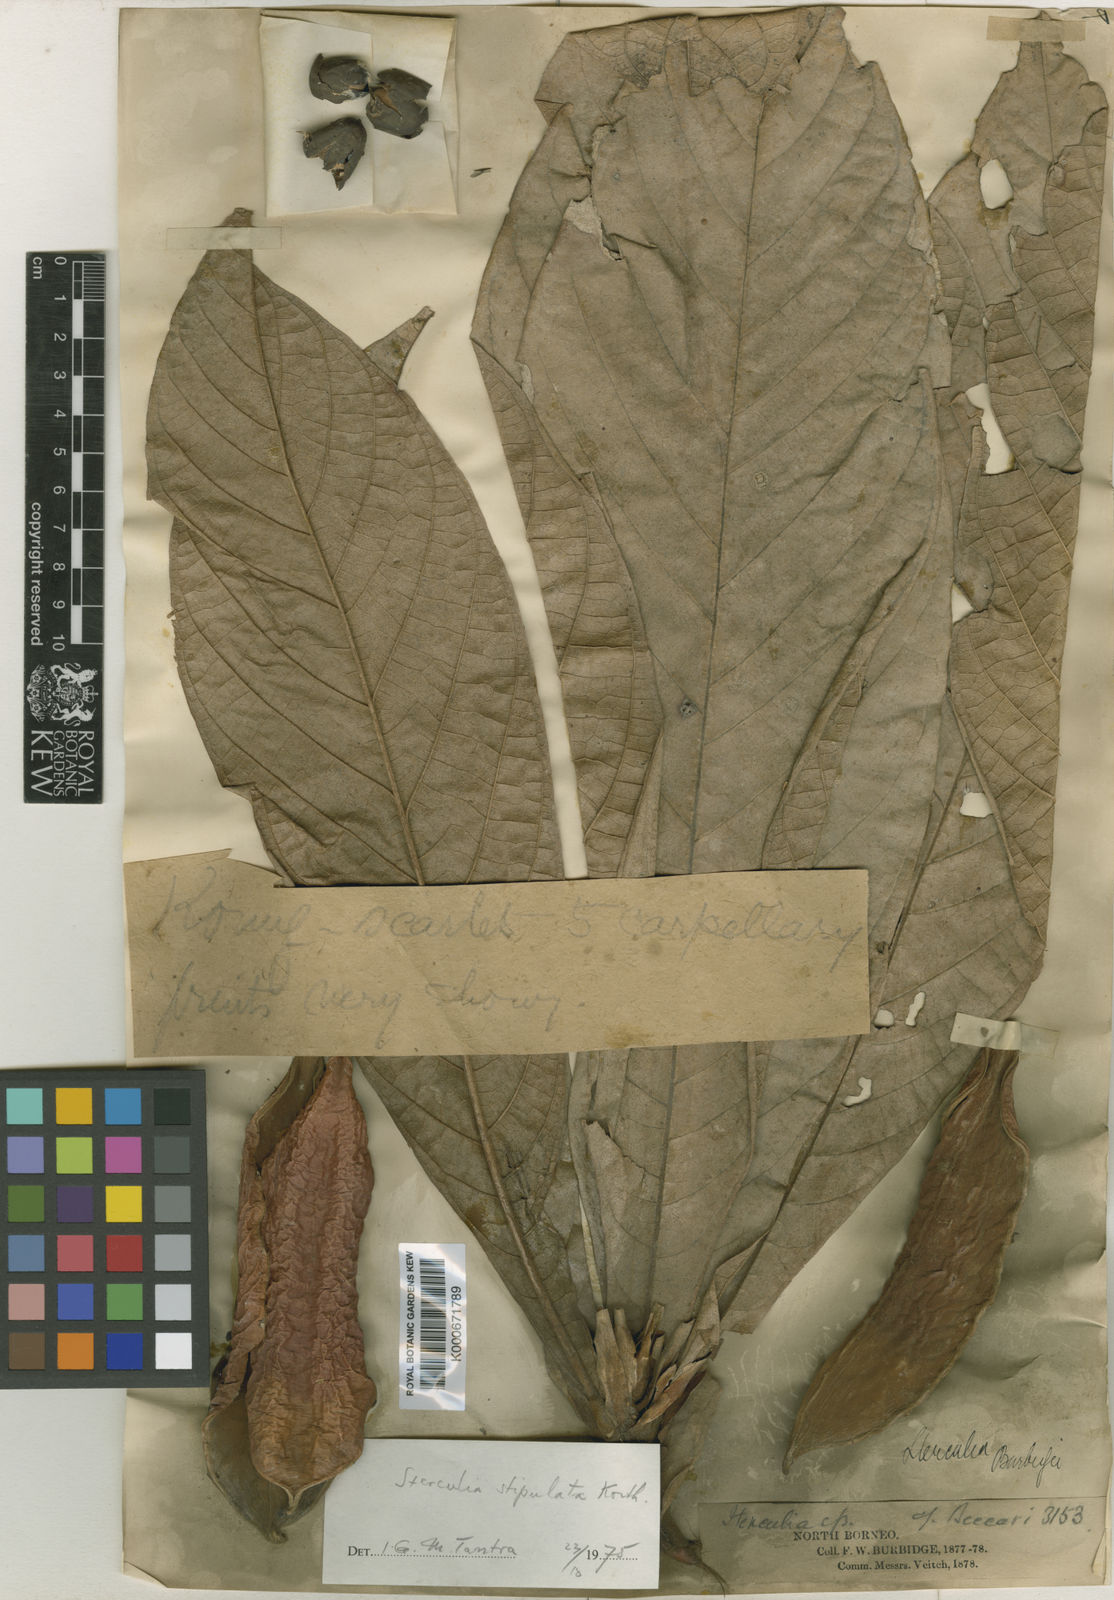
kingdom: Plantae
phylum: Tracheophyta
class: Magnoliopsida
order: Malvales
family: Malvaceae
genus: Sterculia
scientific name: Sterculia stipulata
